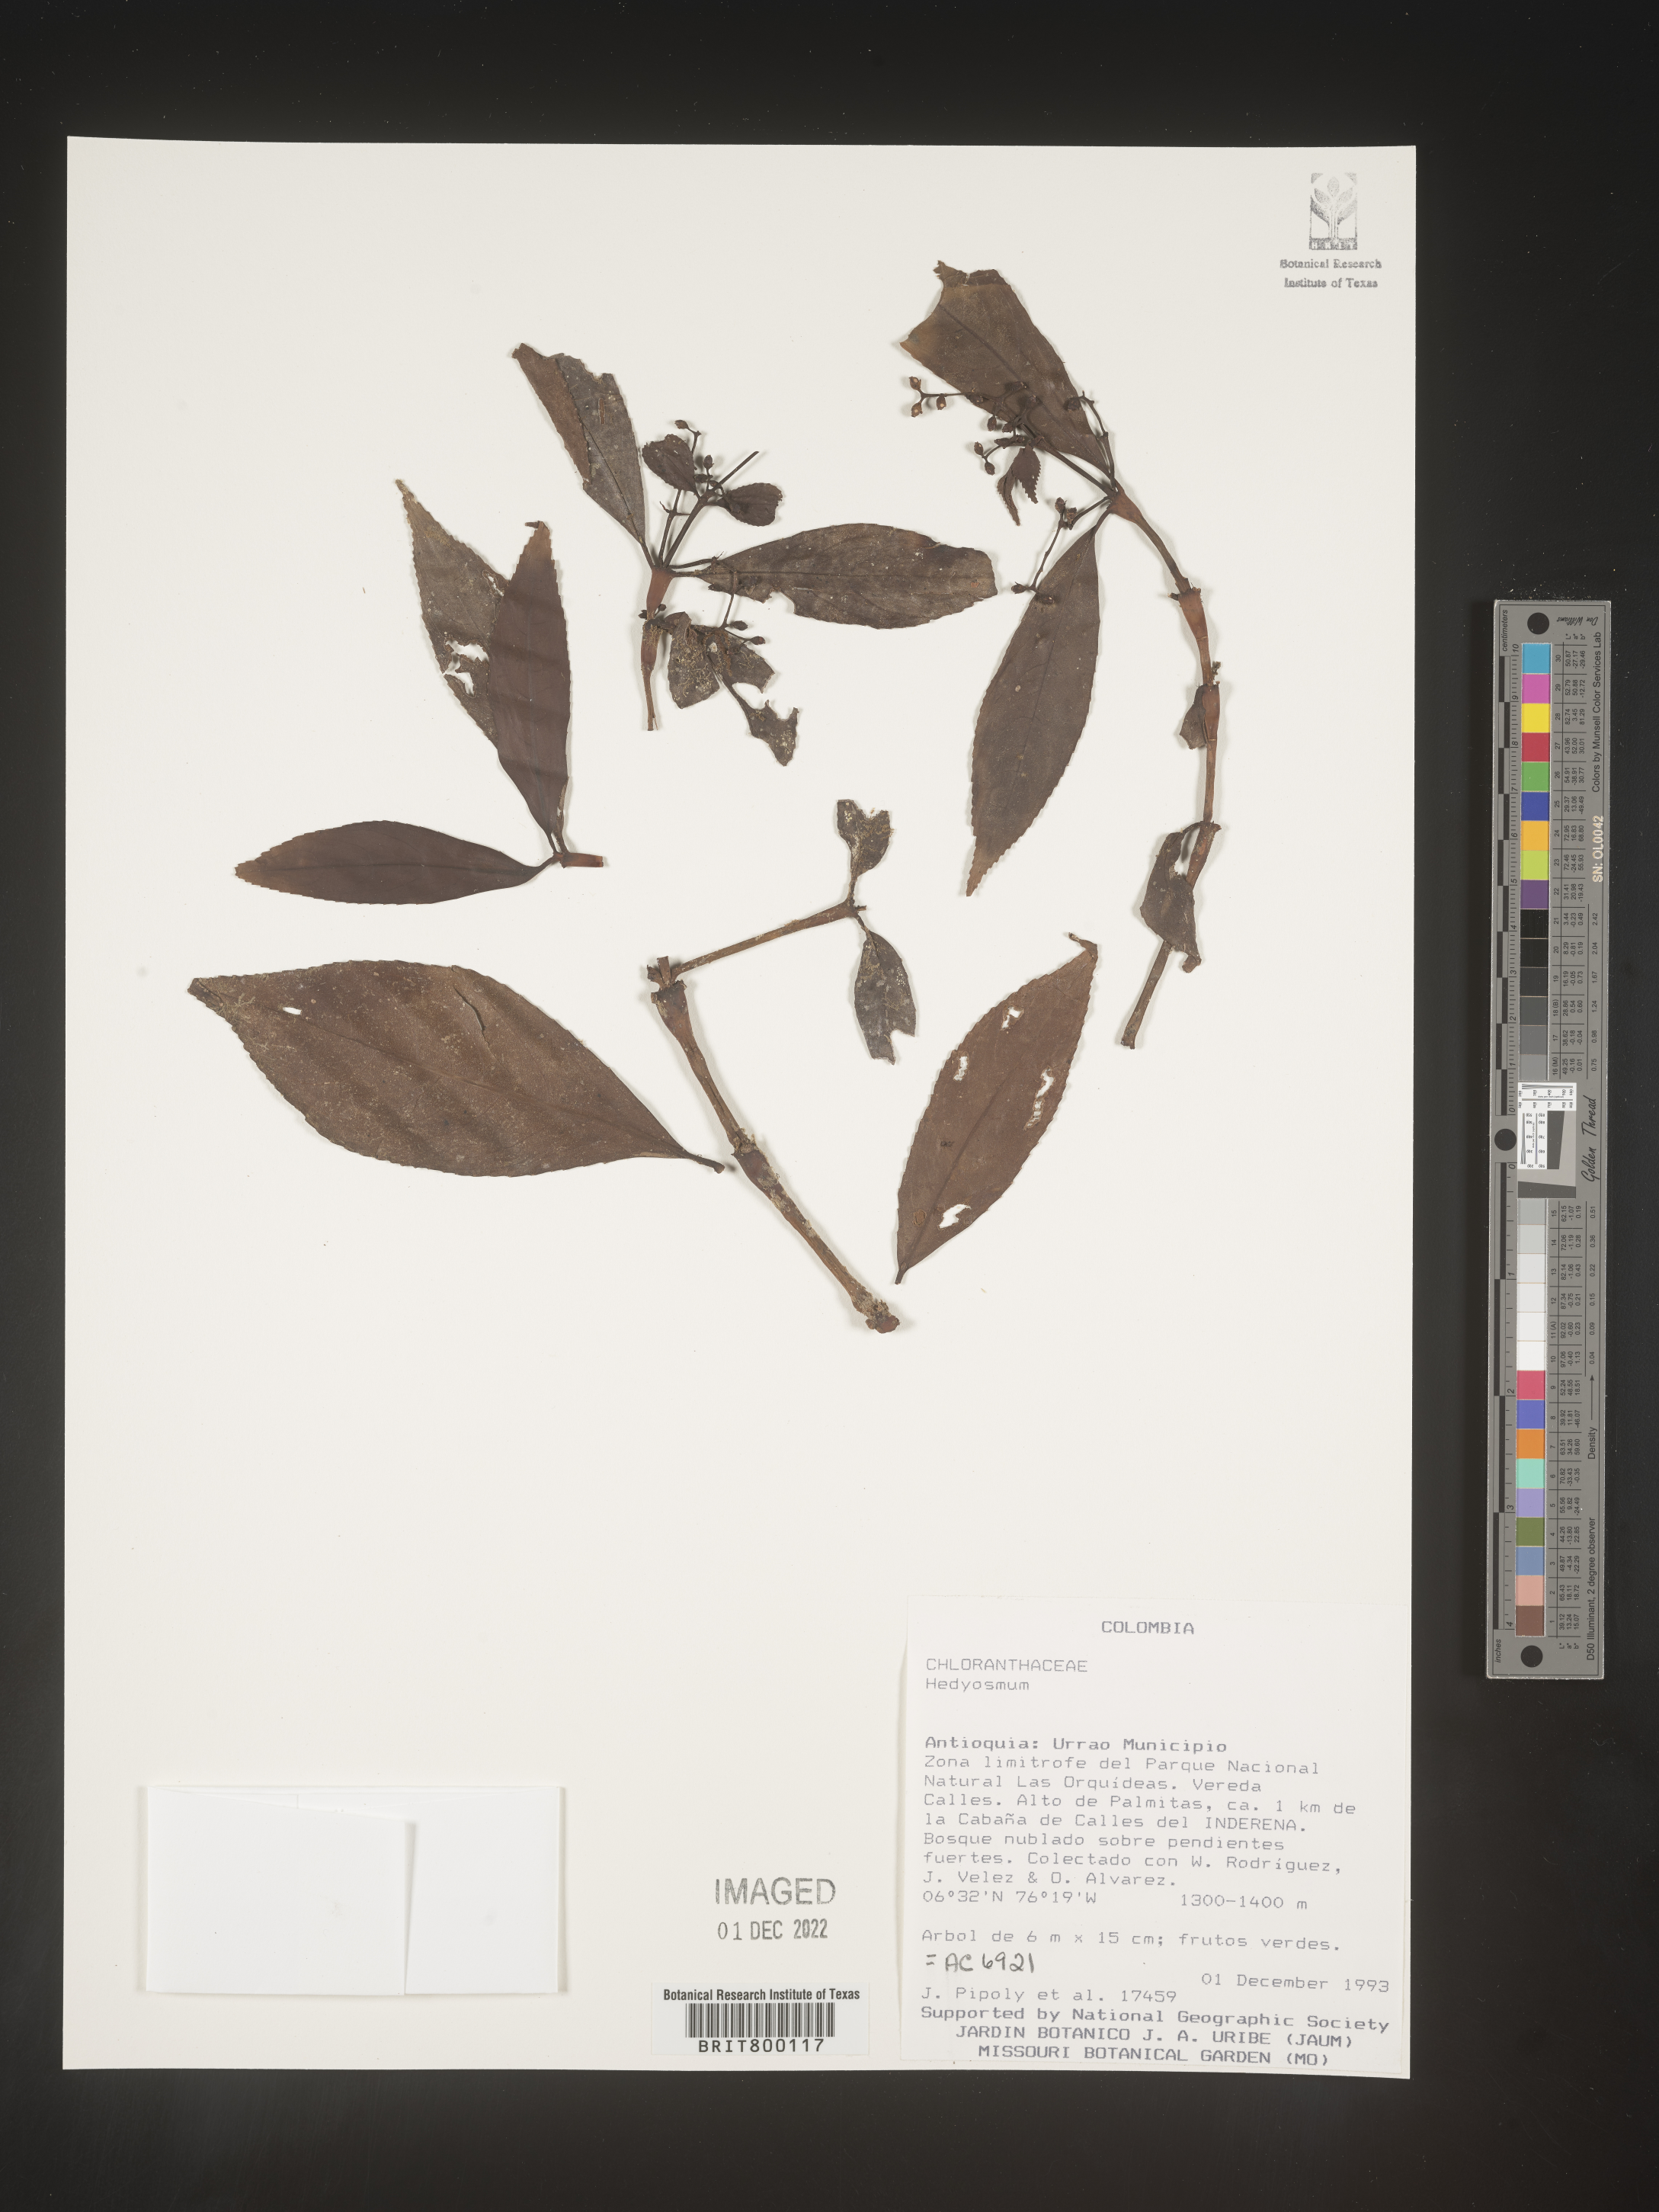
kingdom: Plantae
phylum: Tracheophyta
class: Magnoliopsida
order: Chloranthales
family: Chloranthaceae
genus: Hedyosmum
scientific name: Hedyosmum
